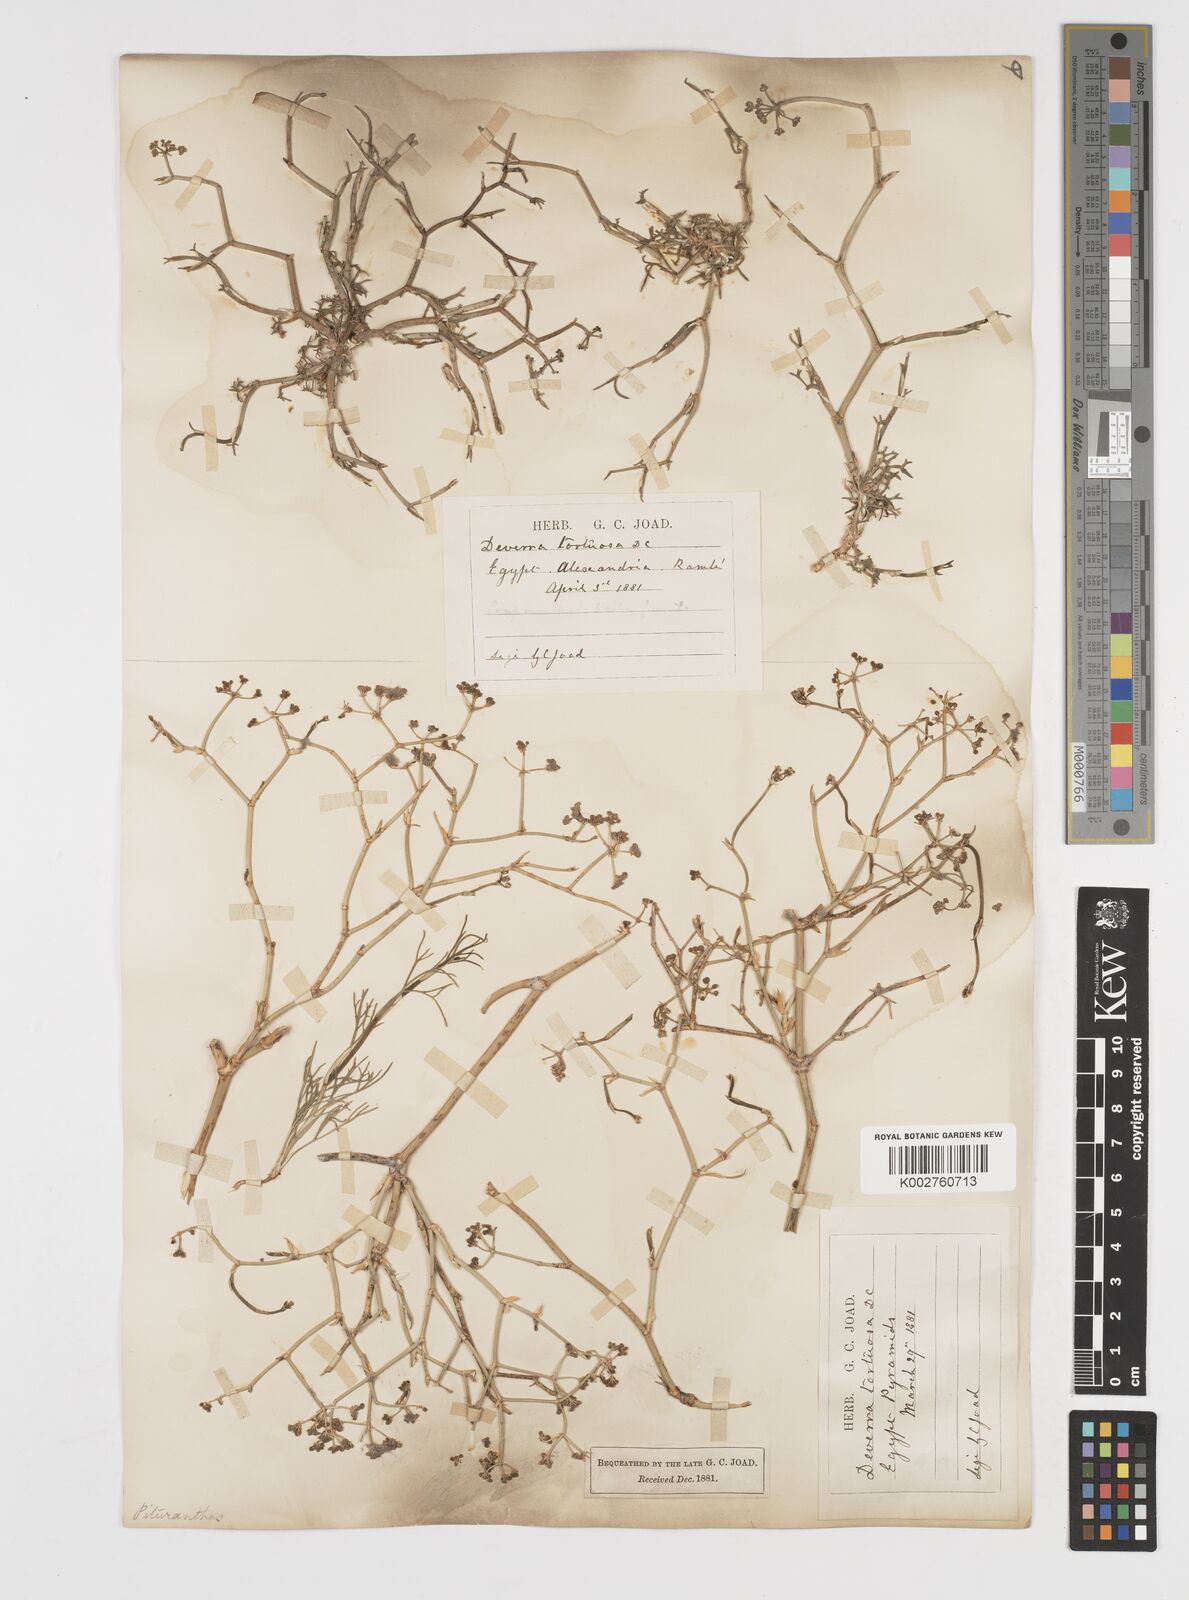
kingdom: Plantae
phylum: Tracheophyta
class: Magnoliopsida
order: Apiales
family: Apiaceae
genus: Deverra
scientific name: Deverra denudata
